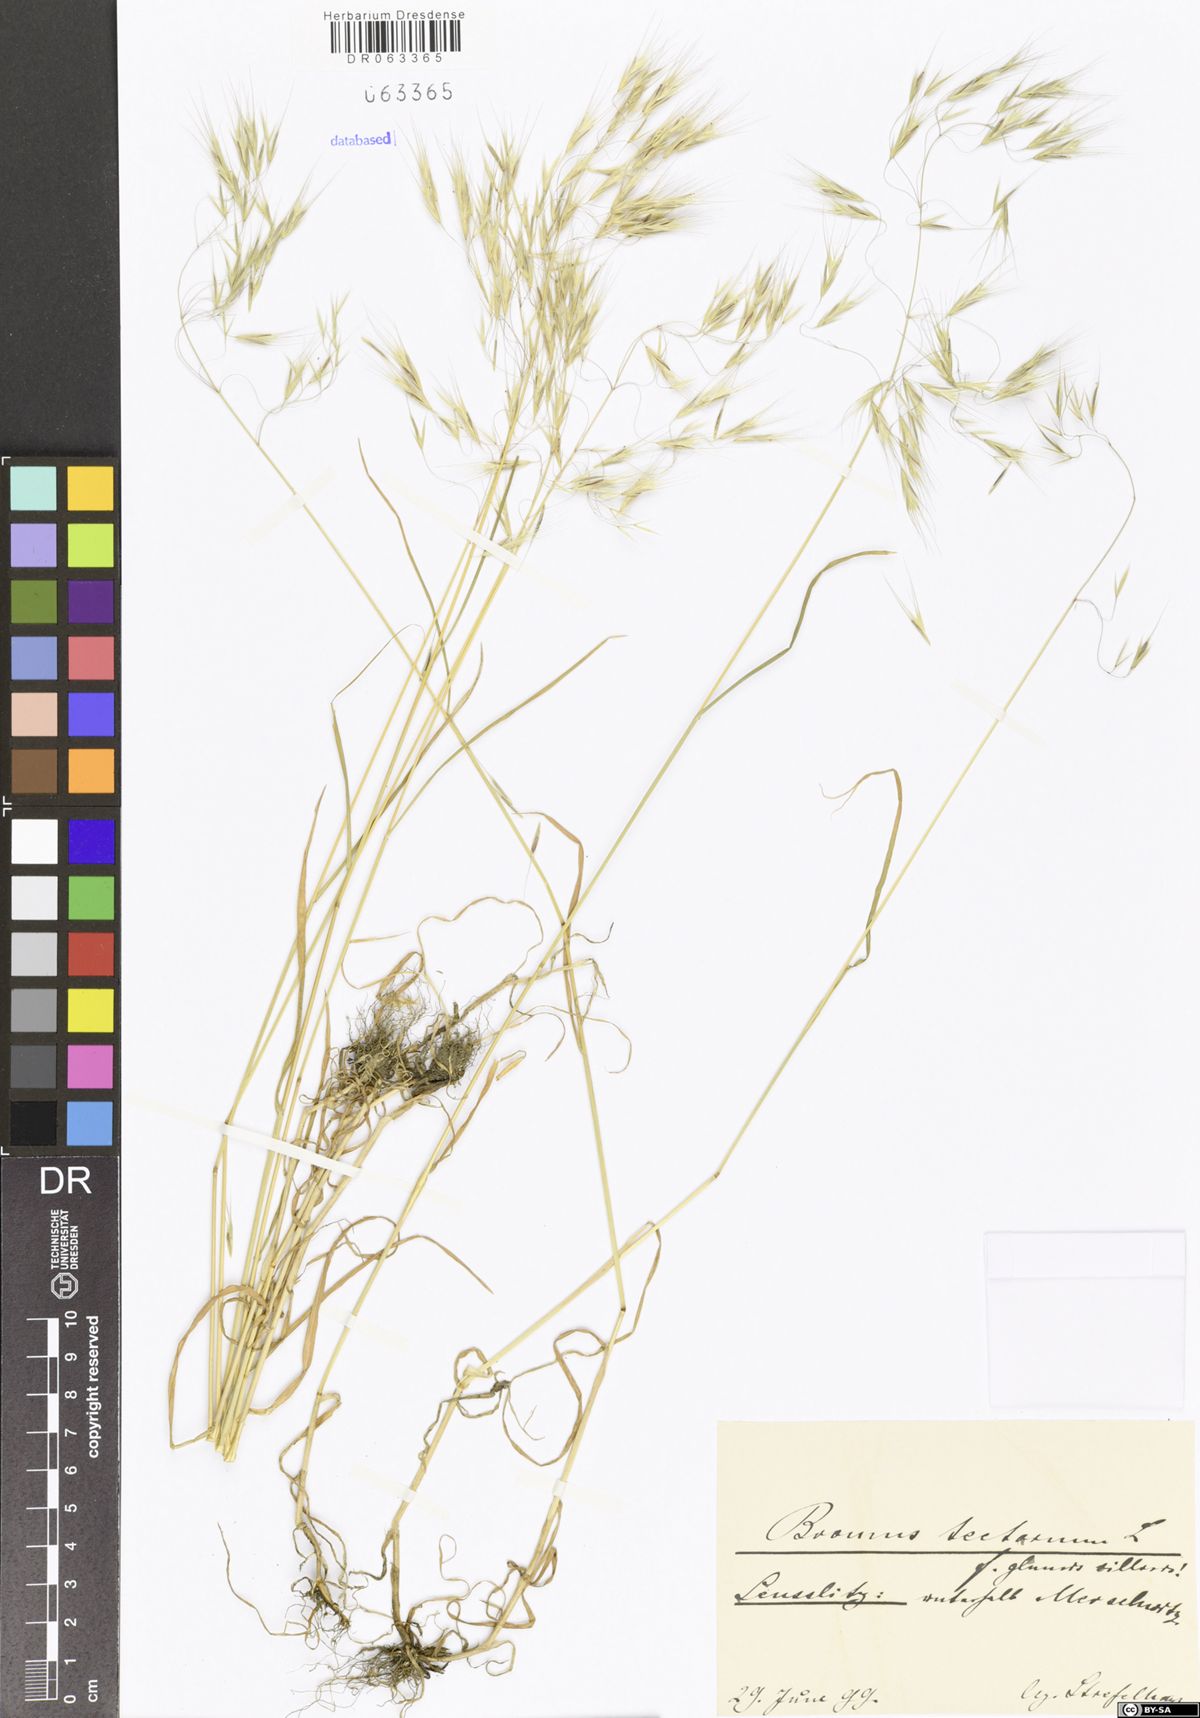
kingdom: Plantae
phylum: Tracheophyta
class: Liliopsida
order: Poales
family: Poaceae
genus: Bromus
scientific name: Bromus tectorum
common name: Cheatgrass
